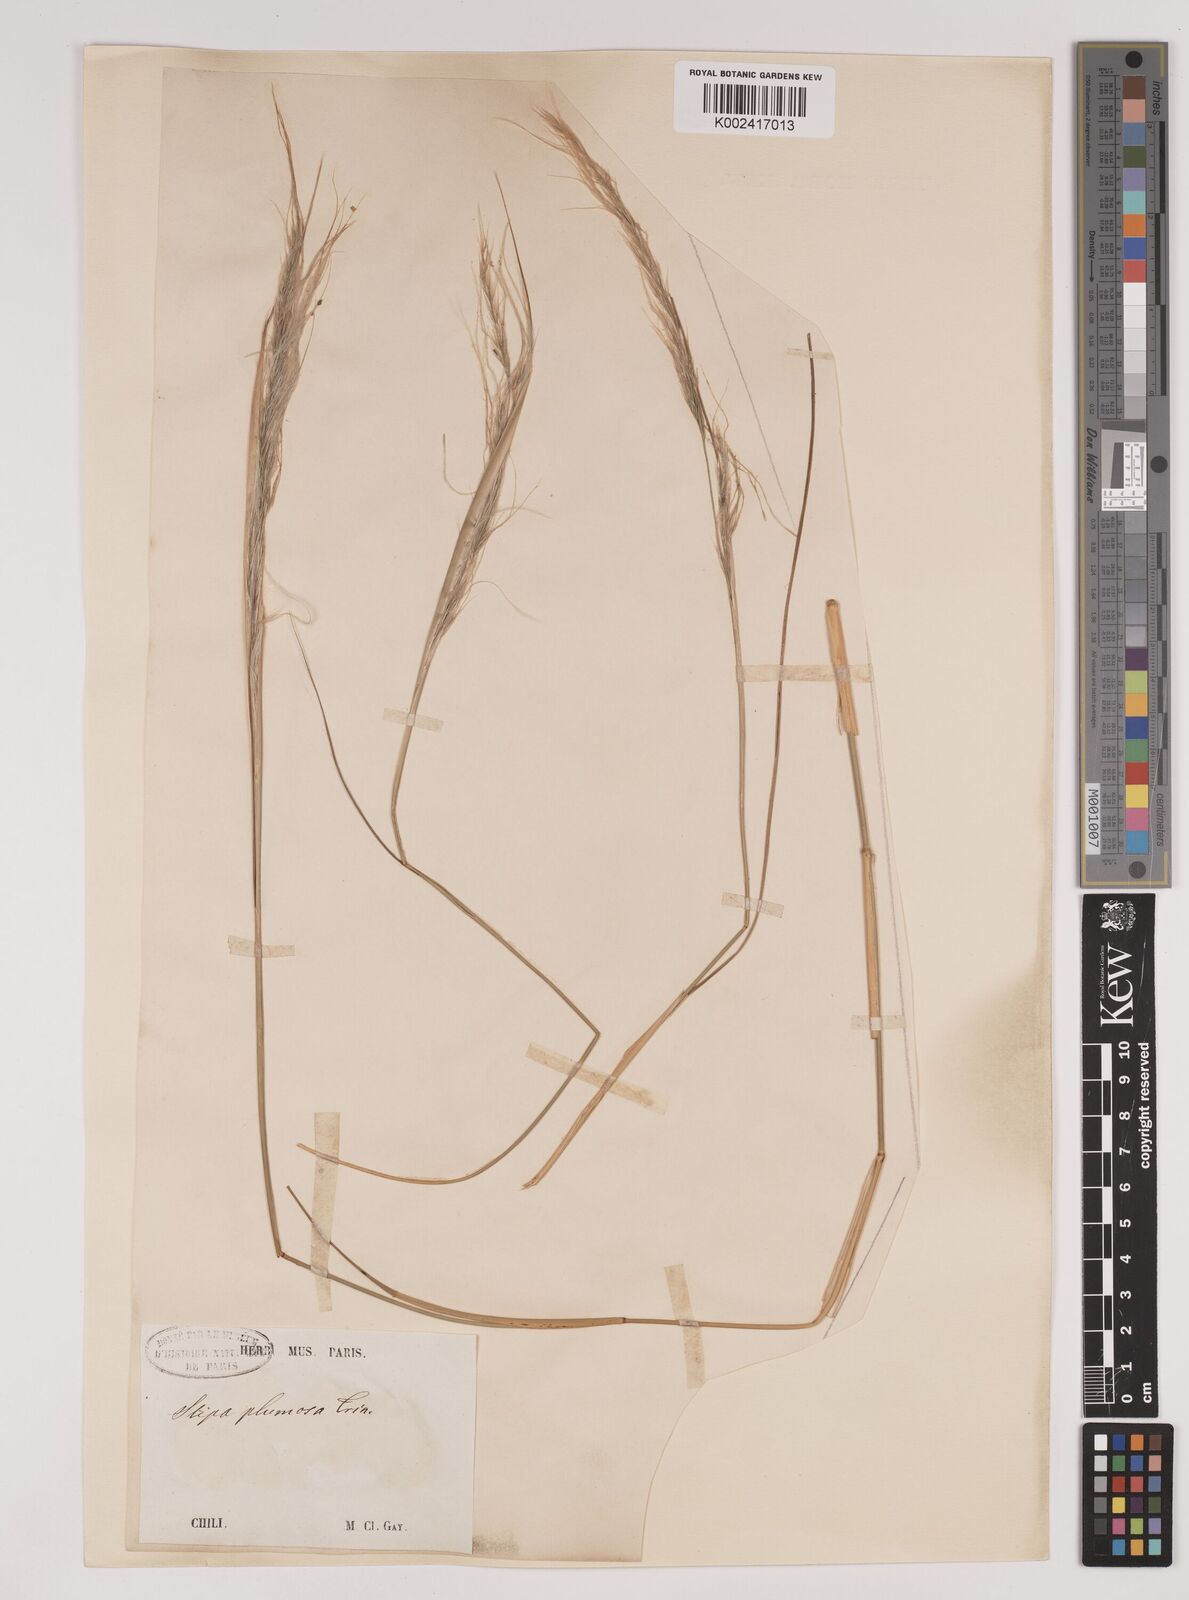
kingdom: Plantae
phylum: Tracheophyta
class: Liliopsida
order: Poales
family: Poaceae
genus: Stipa
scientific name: Stipa plumosa
